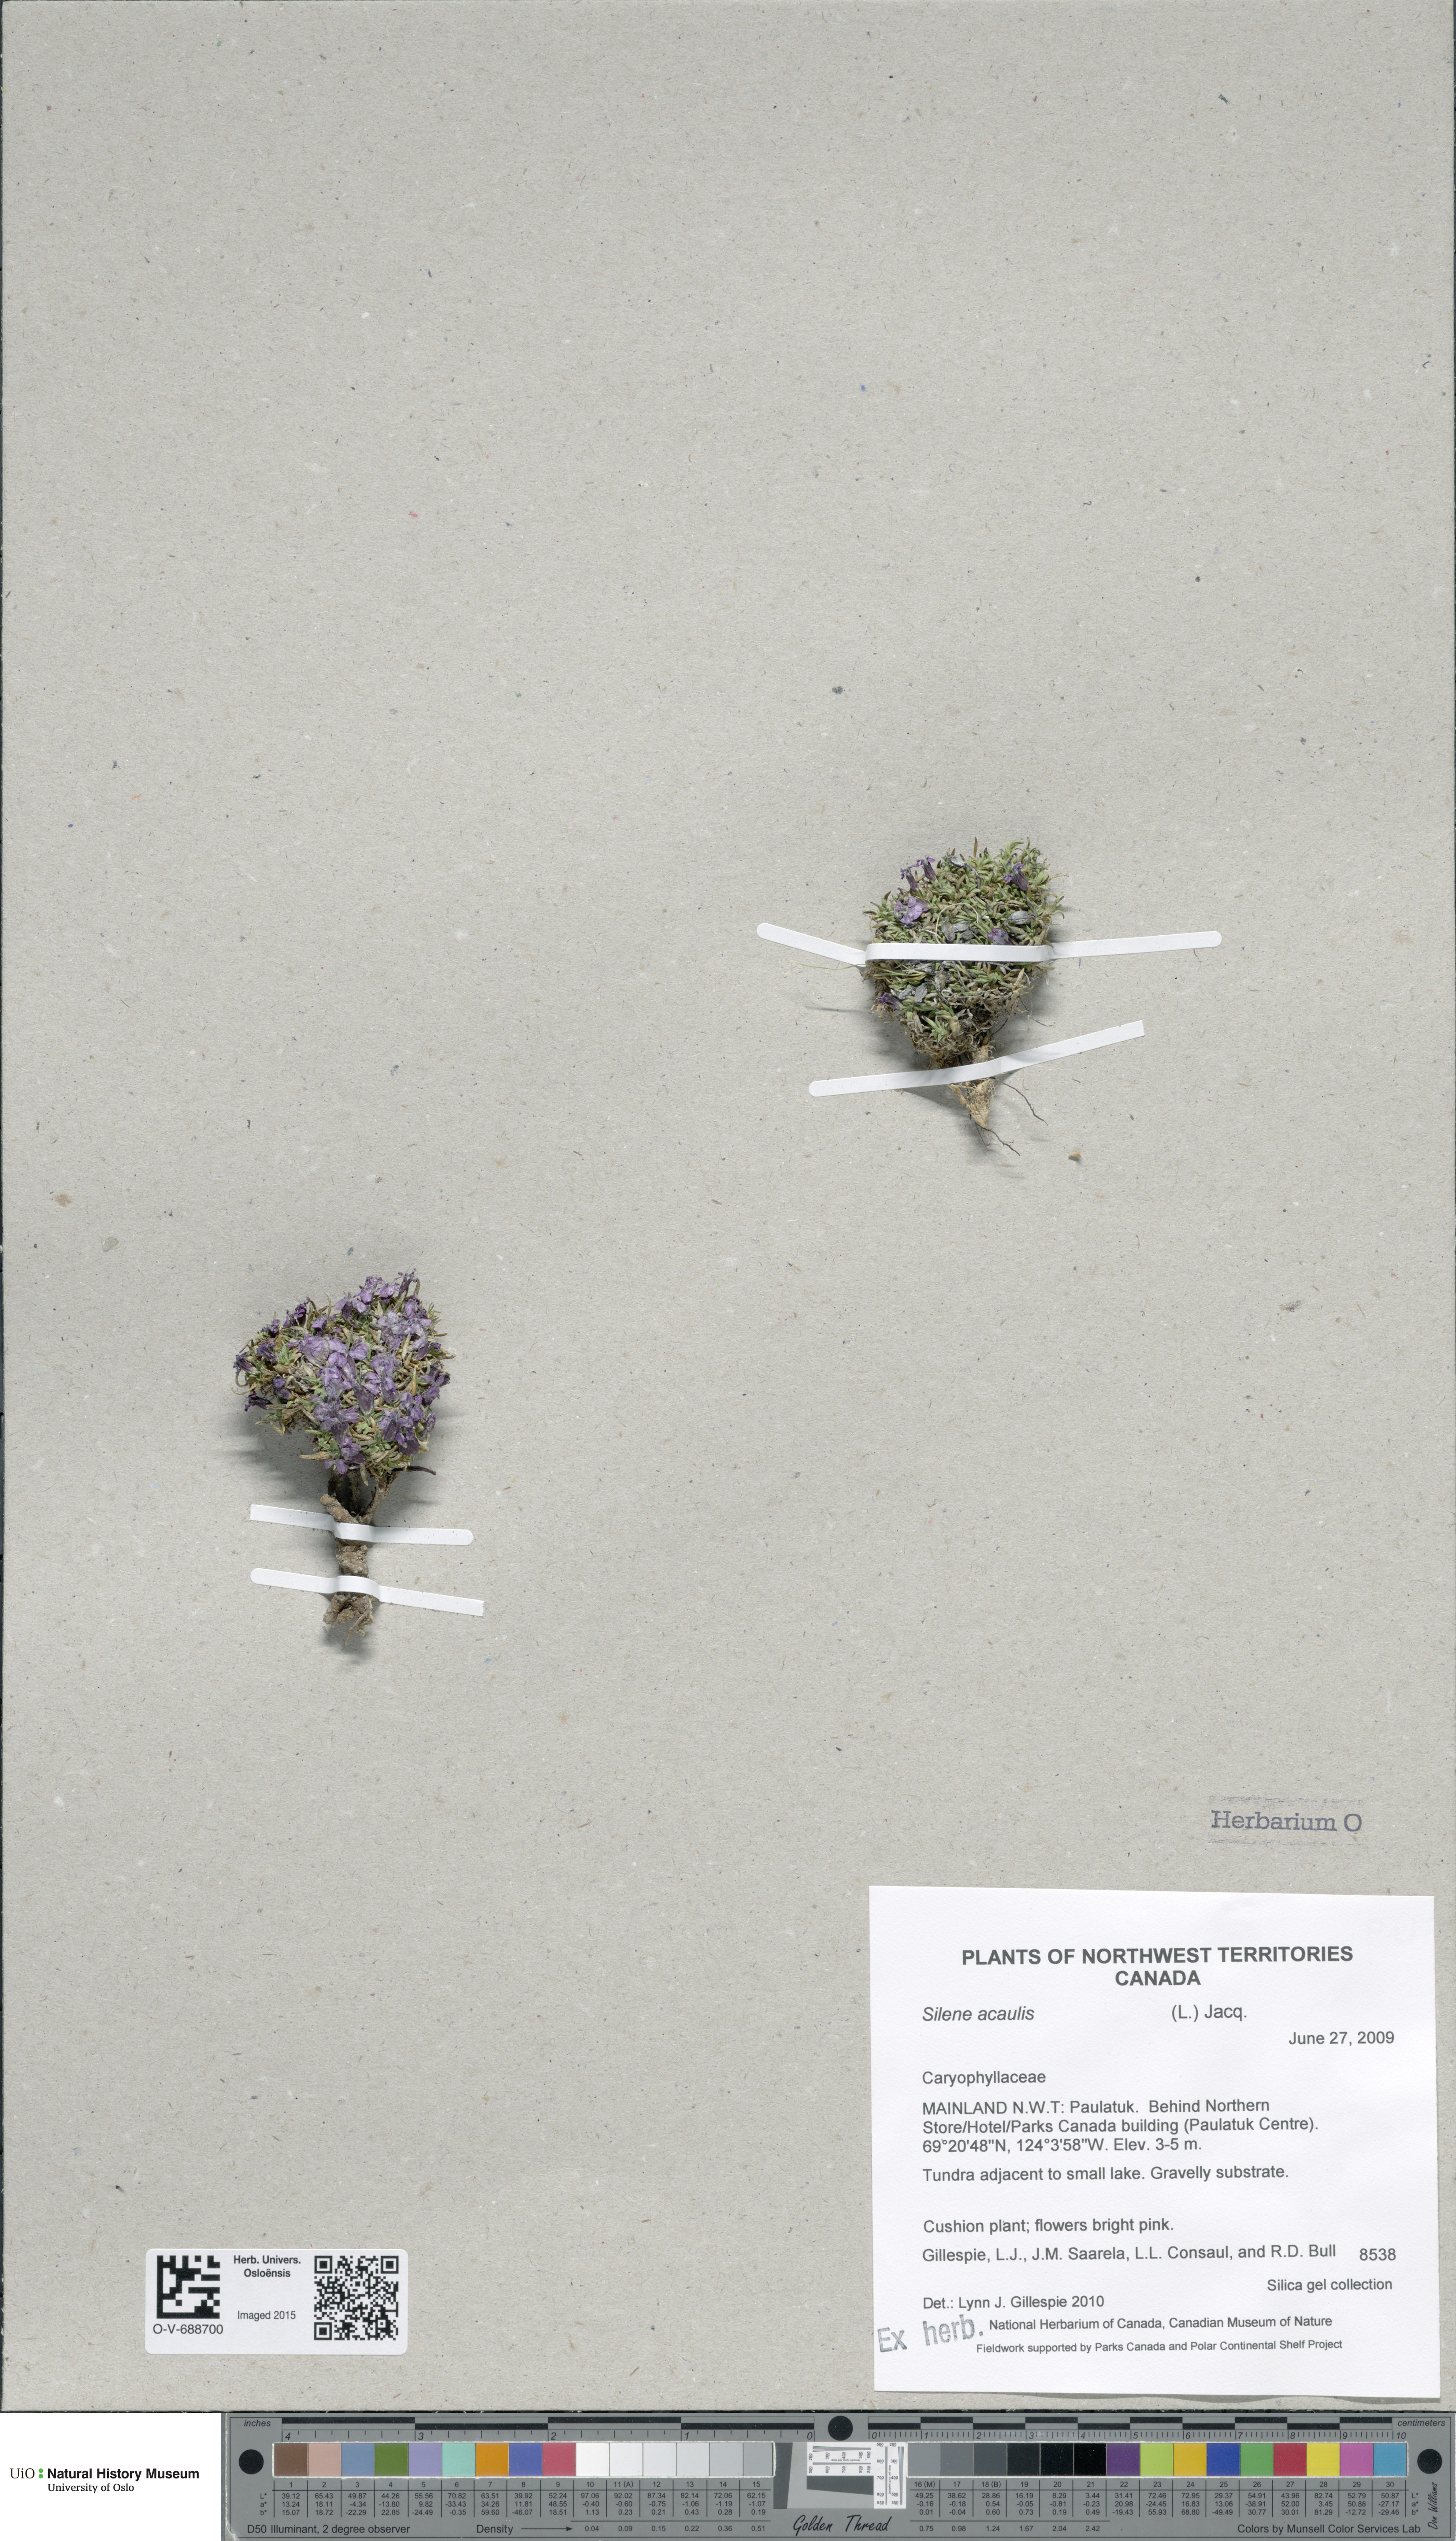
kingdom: Plantae
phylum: Tracheophyta
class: Magnoliopsida
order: Caryophyllales
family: Caryophyllaceae
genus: Silene
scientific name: Silene acaulis
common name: Moss campion
